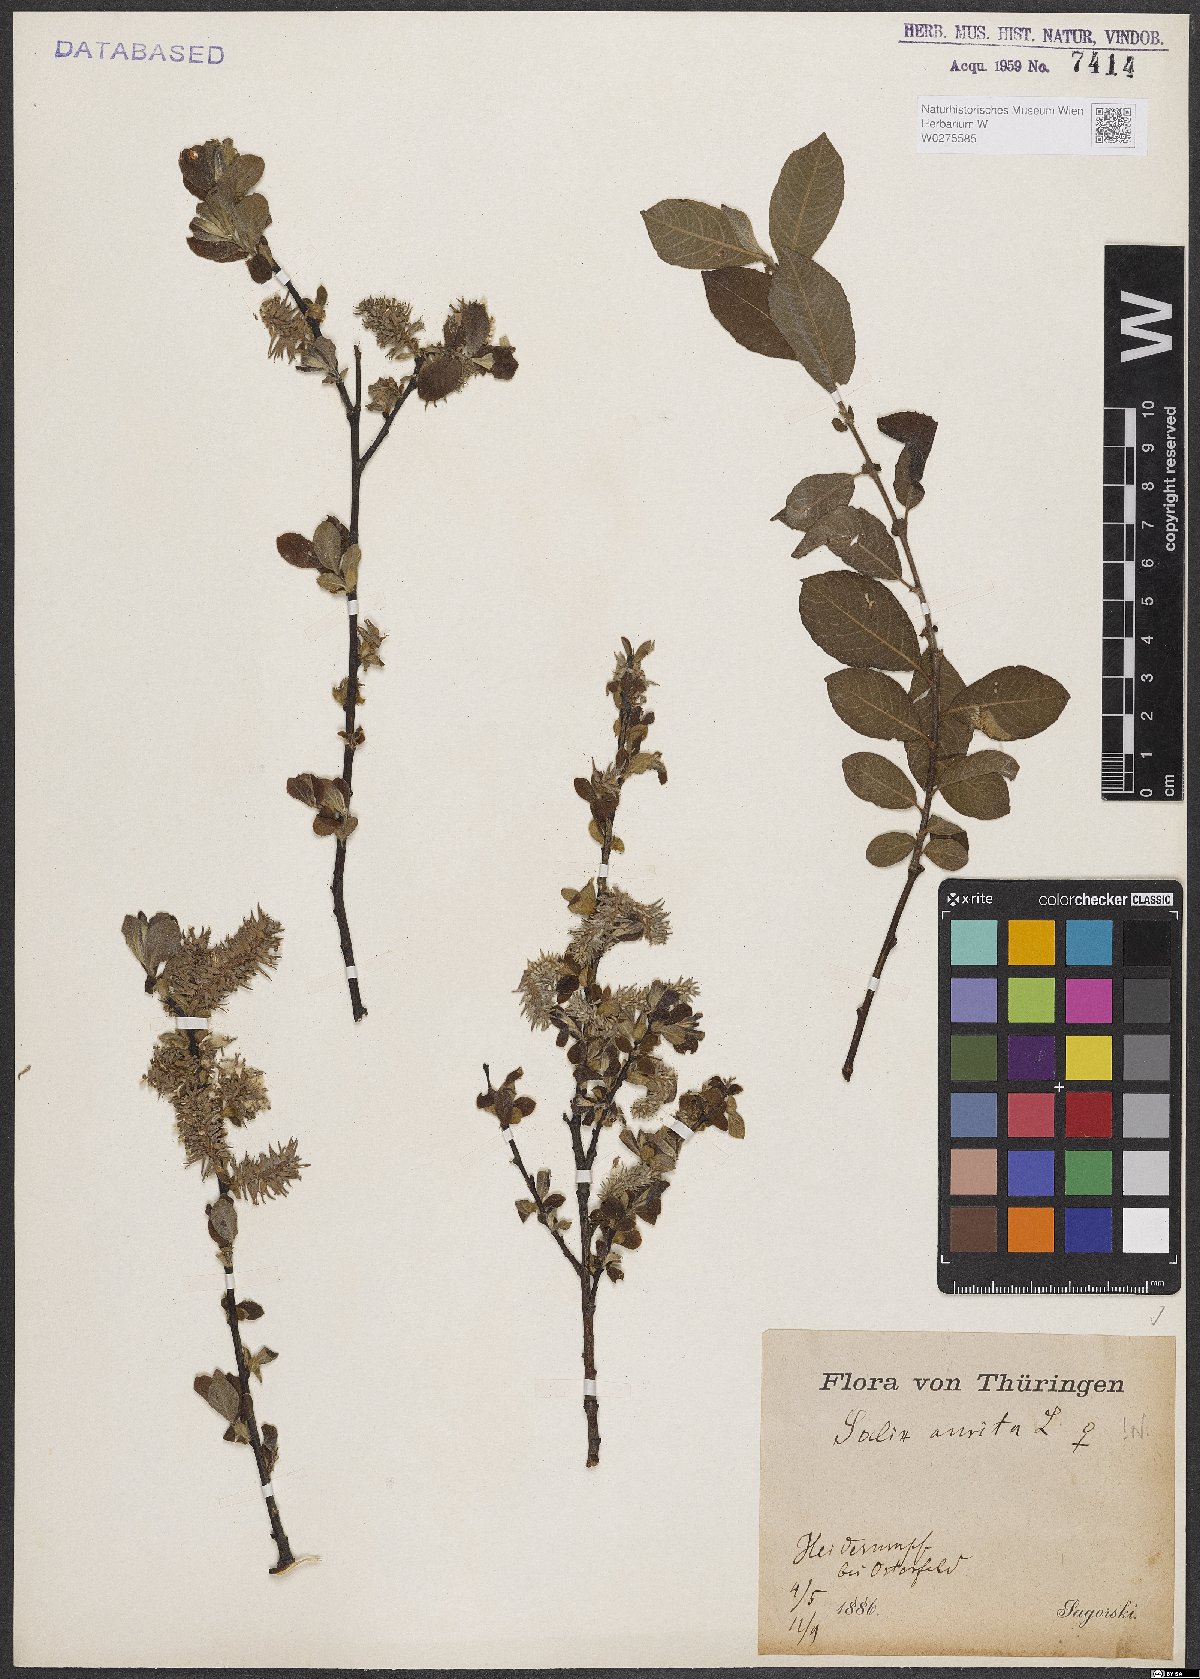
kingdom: Plantae
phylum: Tracheophyta
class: Magnoliopsida
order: Malpighiales
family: Salicaceae
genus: Salix
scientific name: Salix aurita
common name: Eared willow
